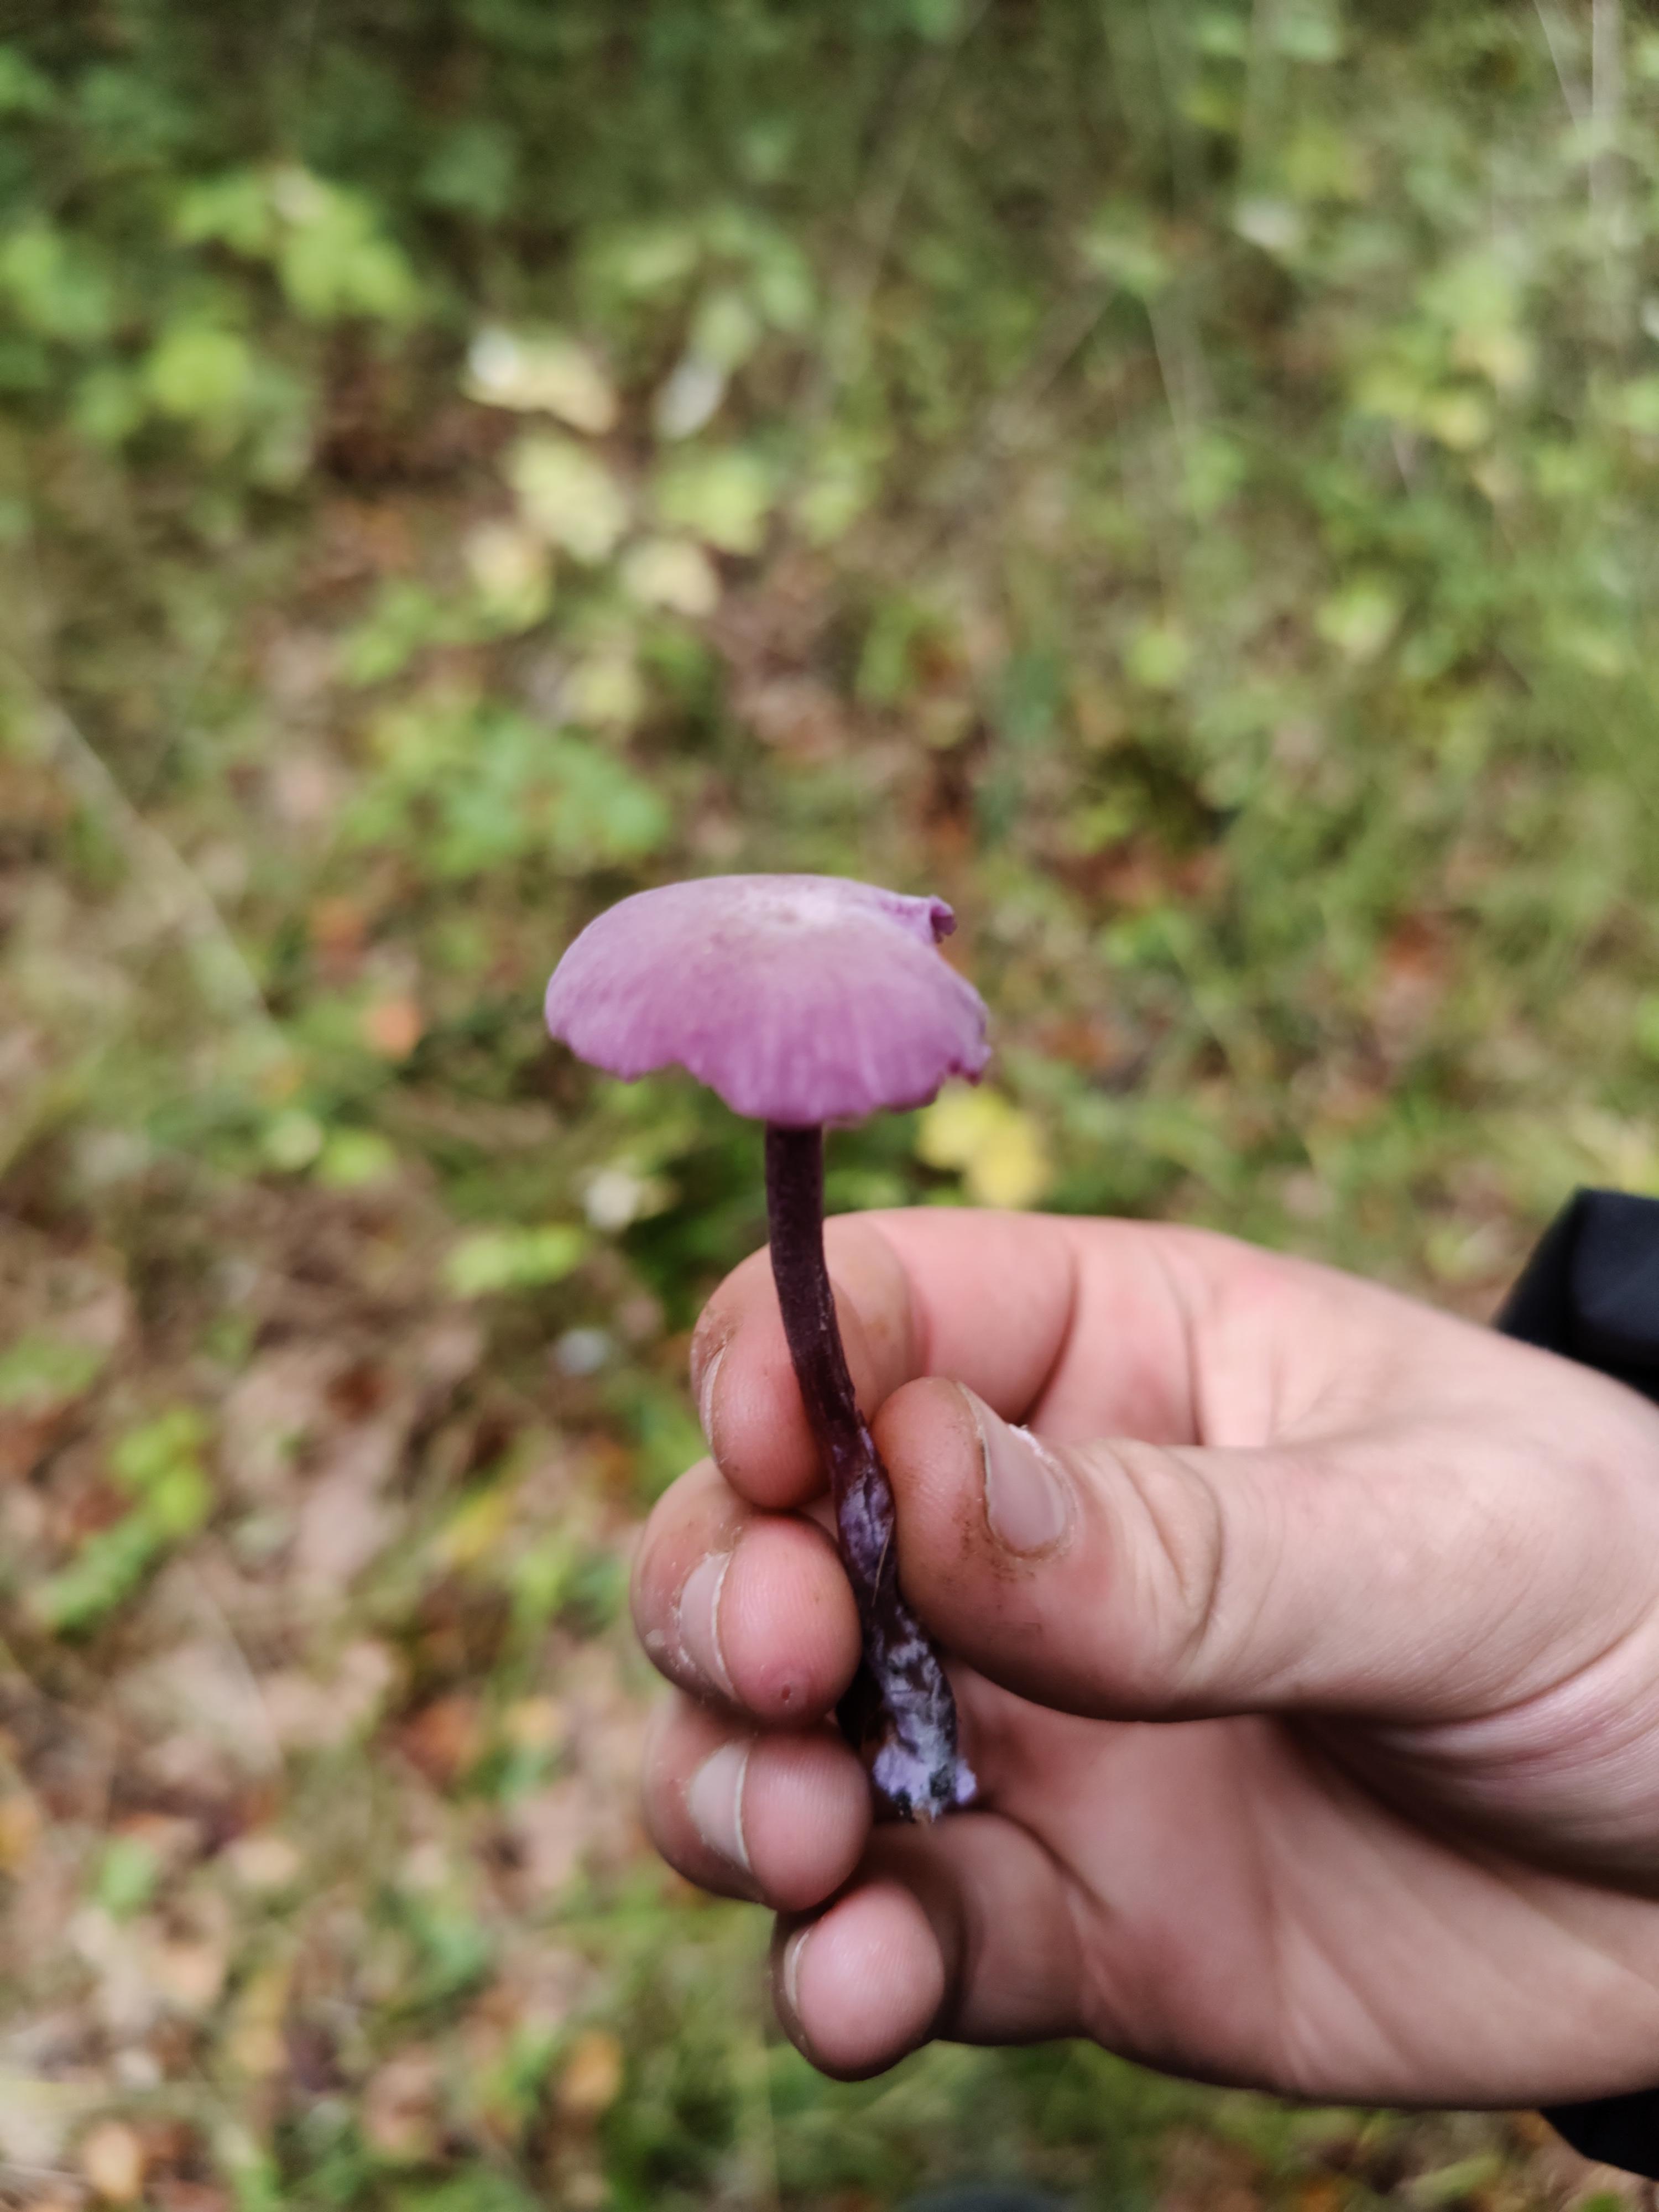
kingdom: Fungi
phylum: Basidiomycota
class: Agaricomycetes
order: Agaricales
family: Hydnangiaceae
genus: Laccaria
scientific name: Laccaria amethystina
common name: violet ametysthat
